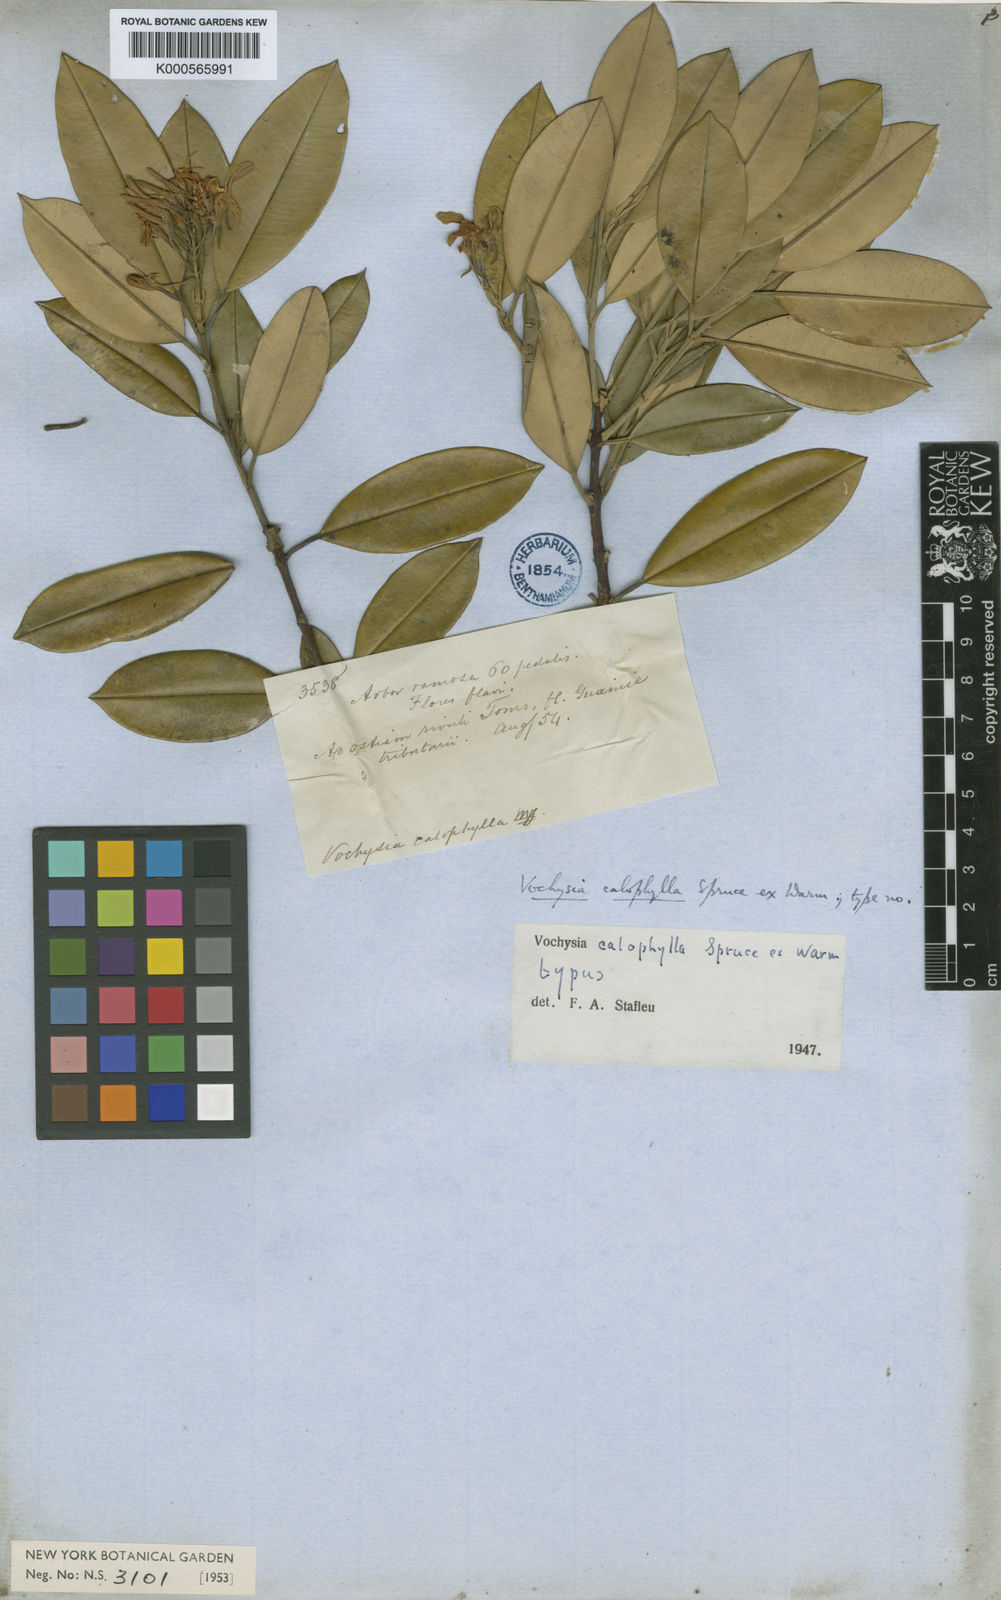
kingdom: Plantae
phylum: Tracheophyta
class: Magnoliopsida
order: Myrtales
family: Vochysiaceae
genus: Vochysia
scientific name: Vochysia calophylla
